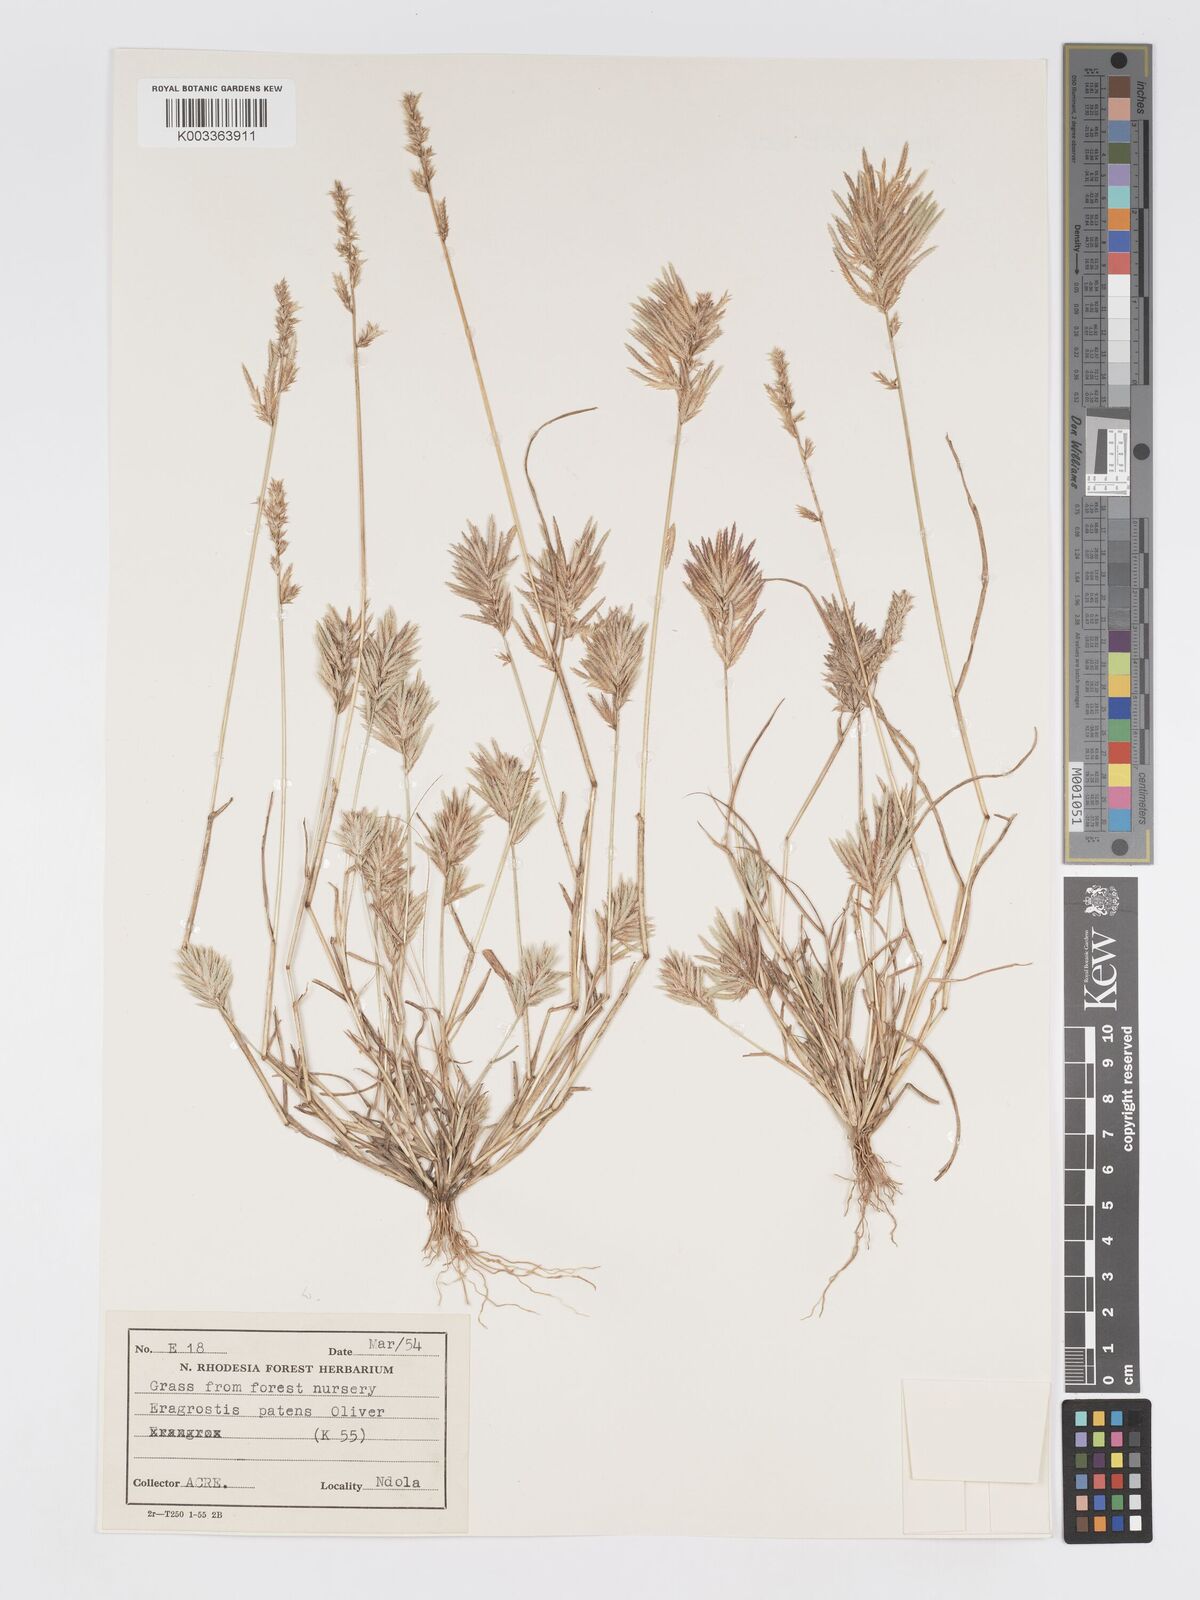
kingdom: Plantae
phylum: Tracheophyta
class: Liliopsida
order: Poales
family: Poaceae
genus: Eragrostis
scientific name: Eragrostis patens
